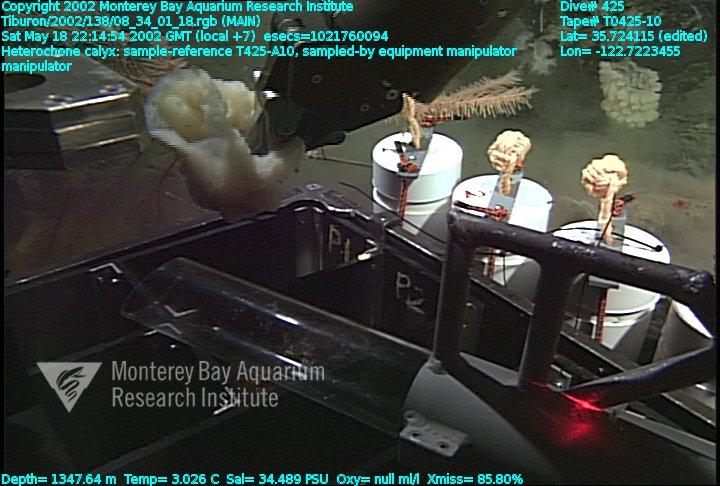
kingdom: Animalia
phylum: Porifera
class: Hexactinellida
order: Sceptrulophora
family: Aphrocallistidae
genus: Heterochone
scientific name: Heterochone calyx
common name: Fingered goblet glass sponge
